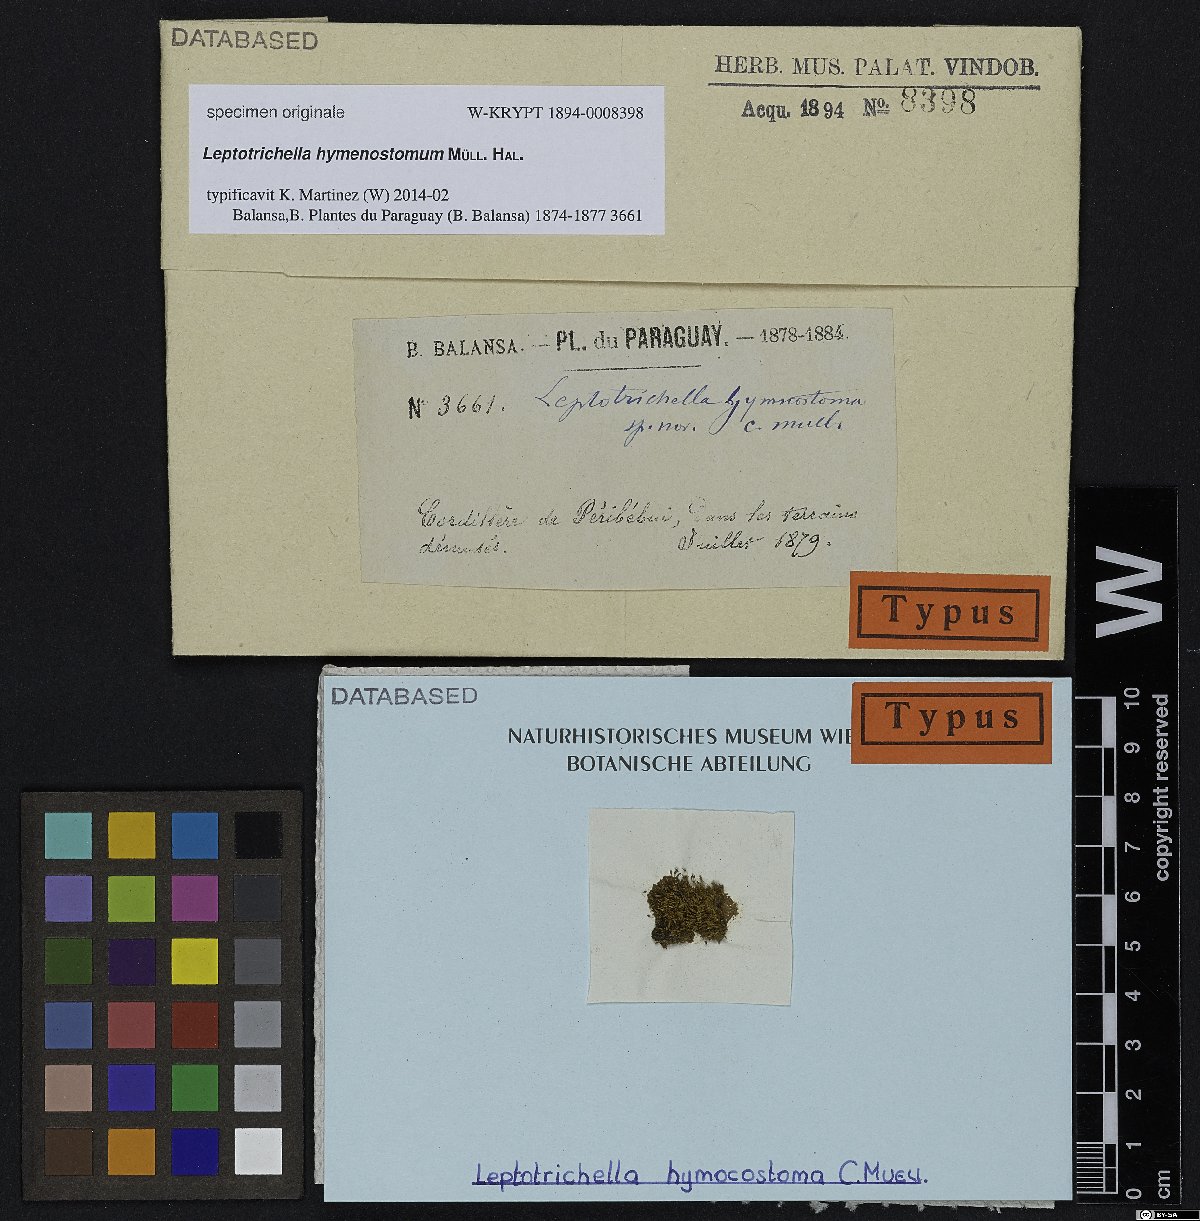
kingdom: Plantae
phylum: Bryophyta
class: Bryopsida
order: Dicranales
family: Dicranaceae
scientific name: Dicranaceae
